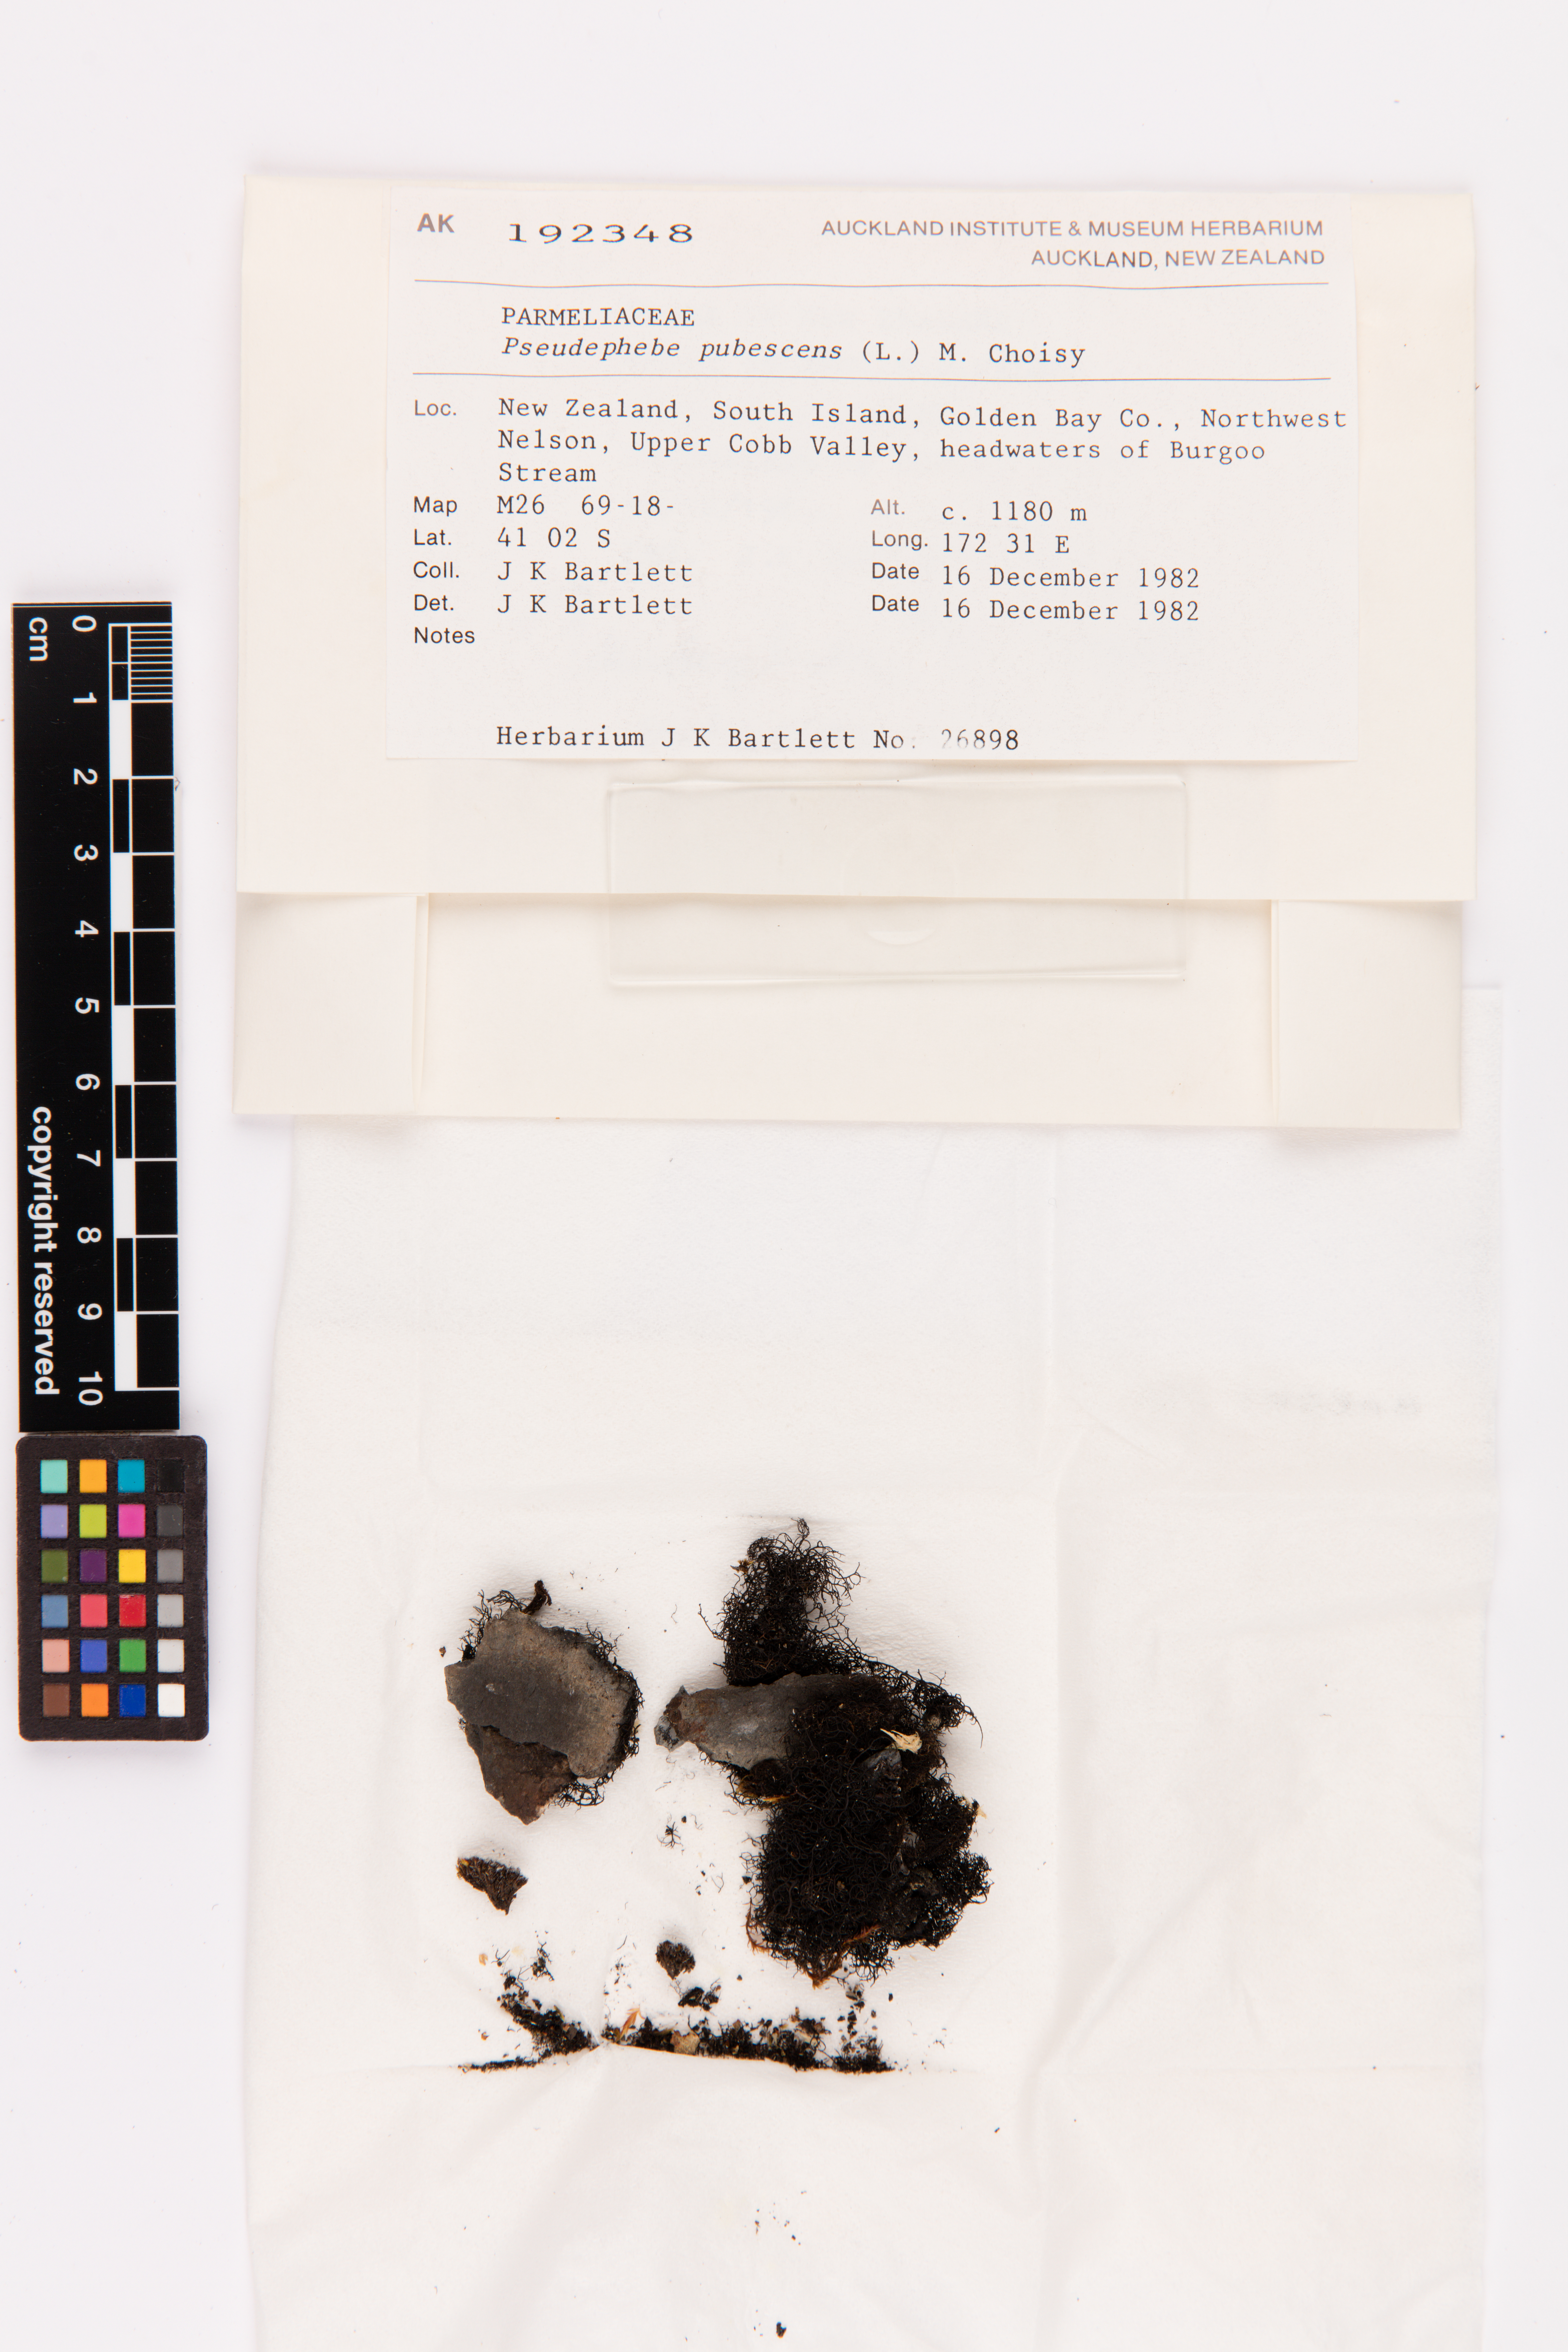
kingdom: Fungi
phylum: Ascomycota
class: Lecanoromycetes
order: Lecanorales
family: Parmeliaceae
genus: Pseudephebe
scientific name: Pseudephebe pubescens
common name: Fine rockwool lichen
